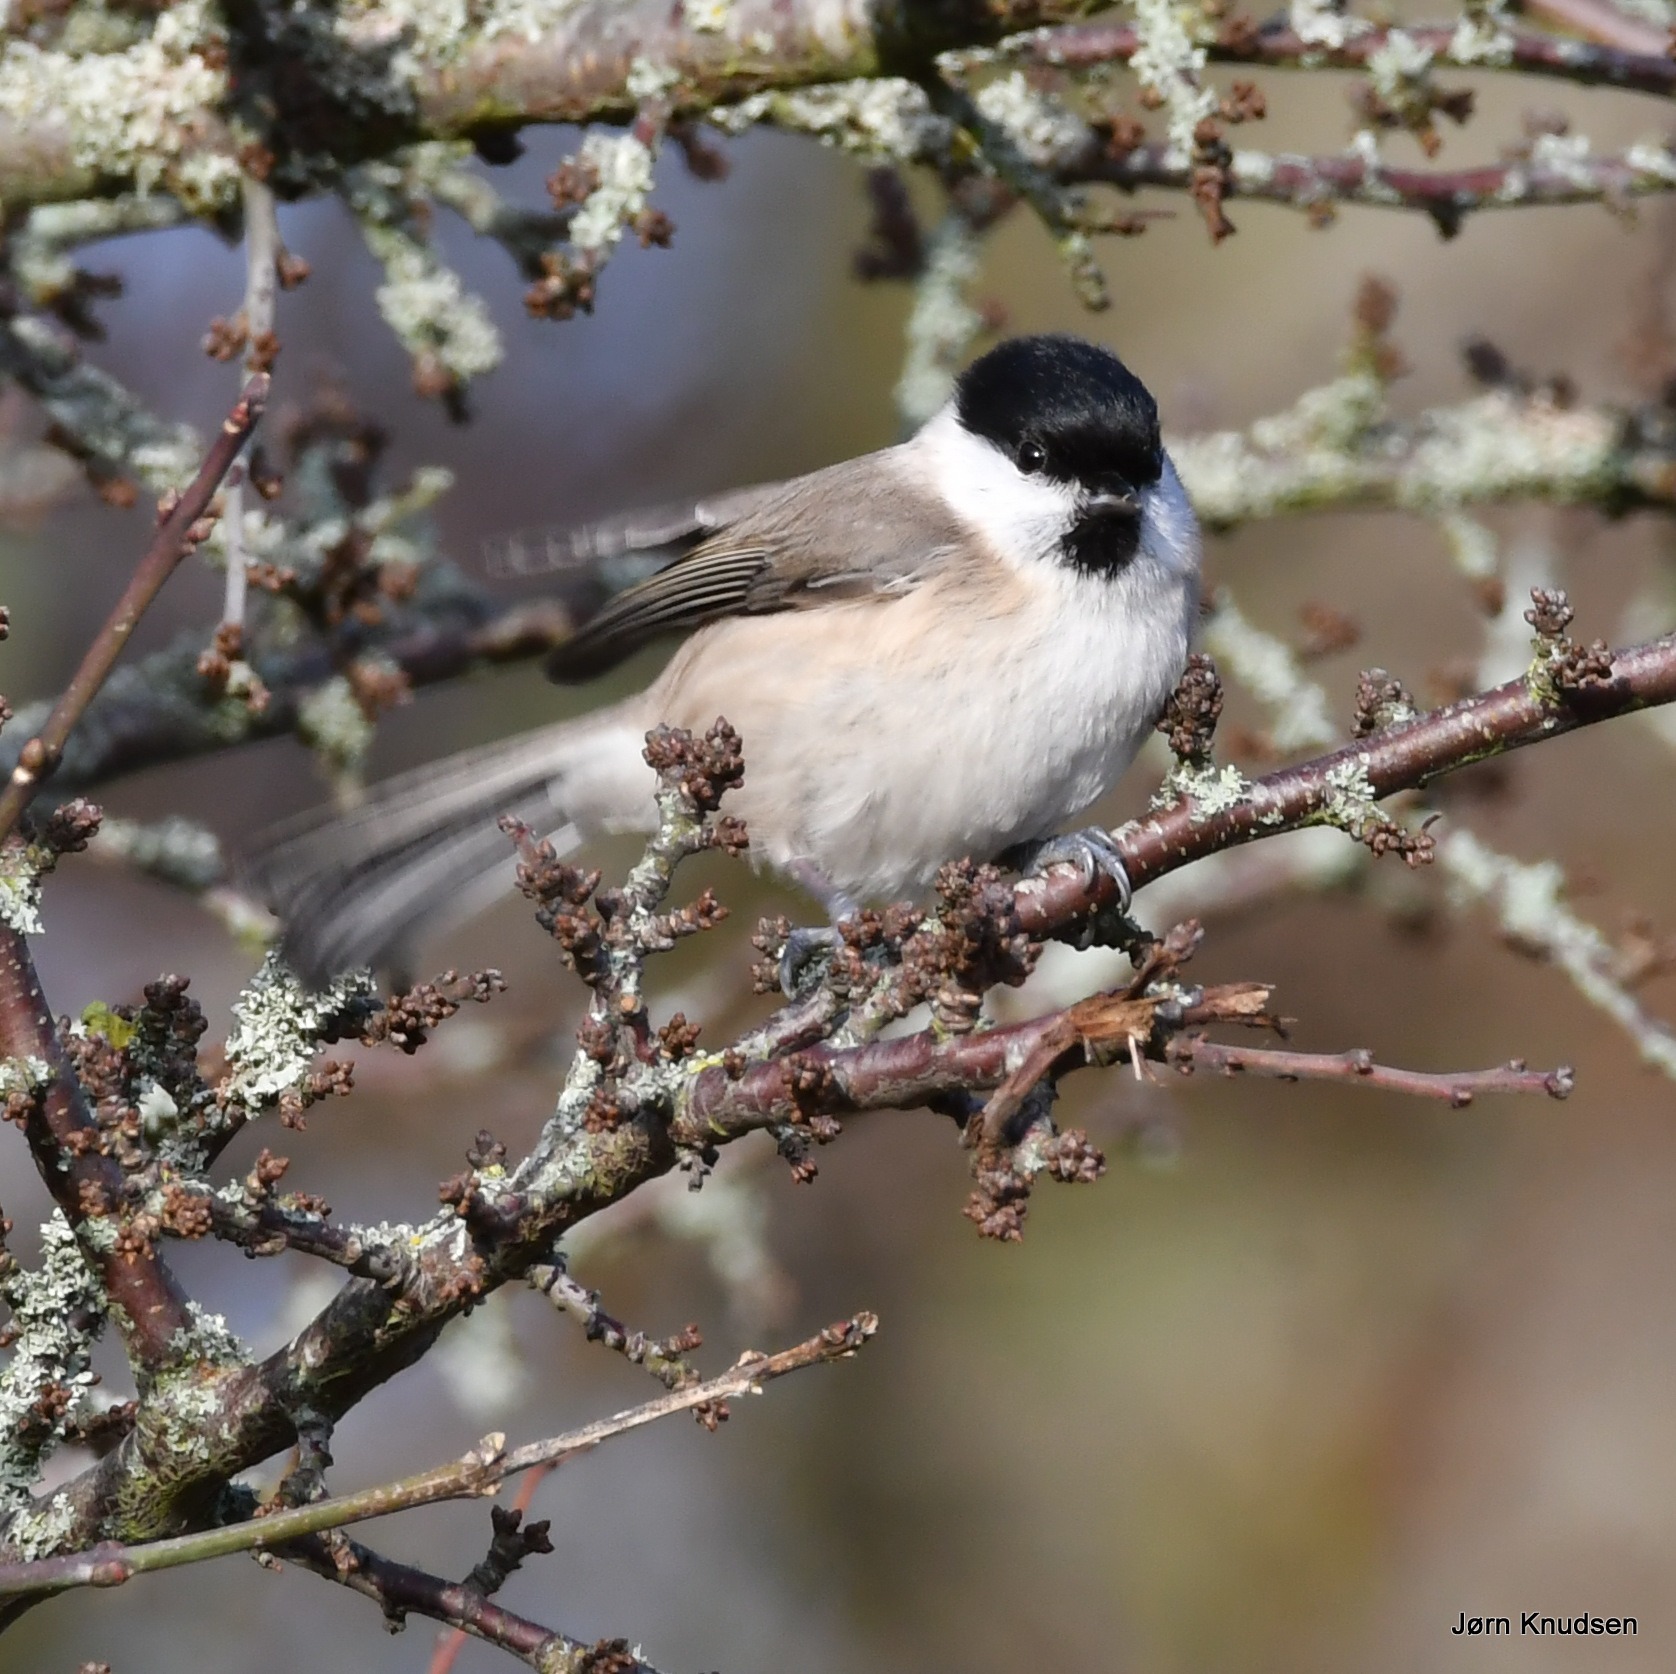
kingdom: Animalia
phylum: Chordata
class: Aves
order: Passeriformes
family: Paridae
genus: Poecile
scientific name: Poecile palustris
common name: Sumpmejse
